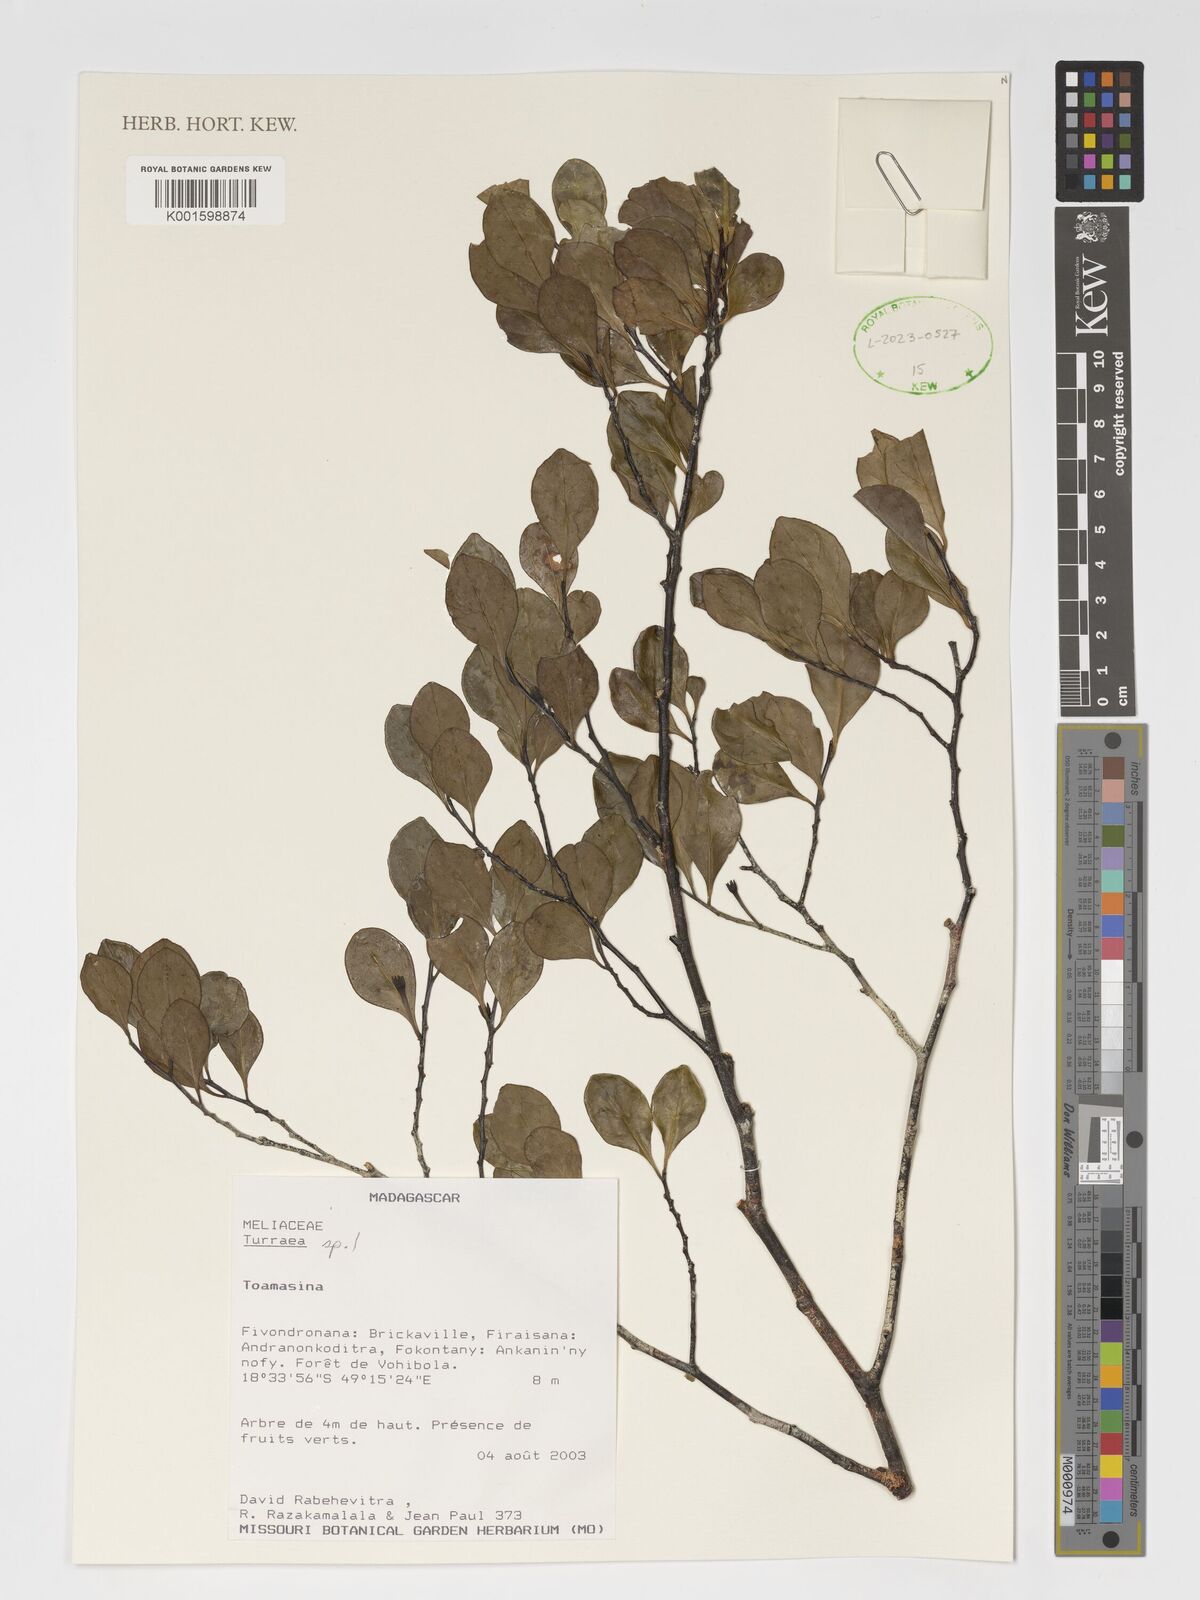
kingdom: Plantae
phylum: Tracheophyta
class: Magnoliopsida
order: Sapindales
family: Meliaceae
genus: Turraea
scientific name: Turraea
